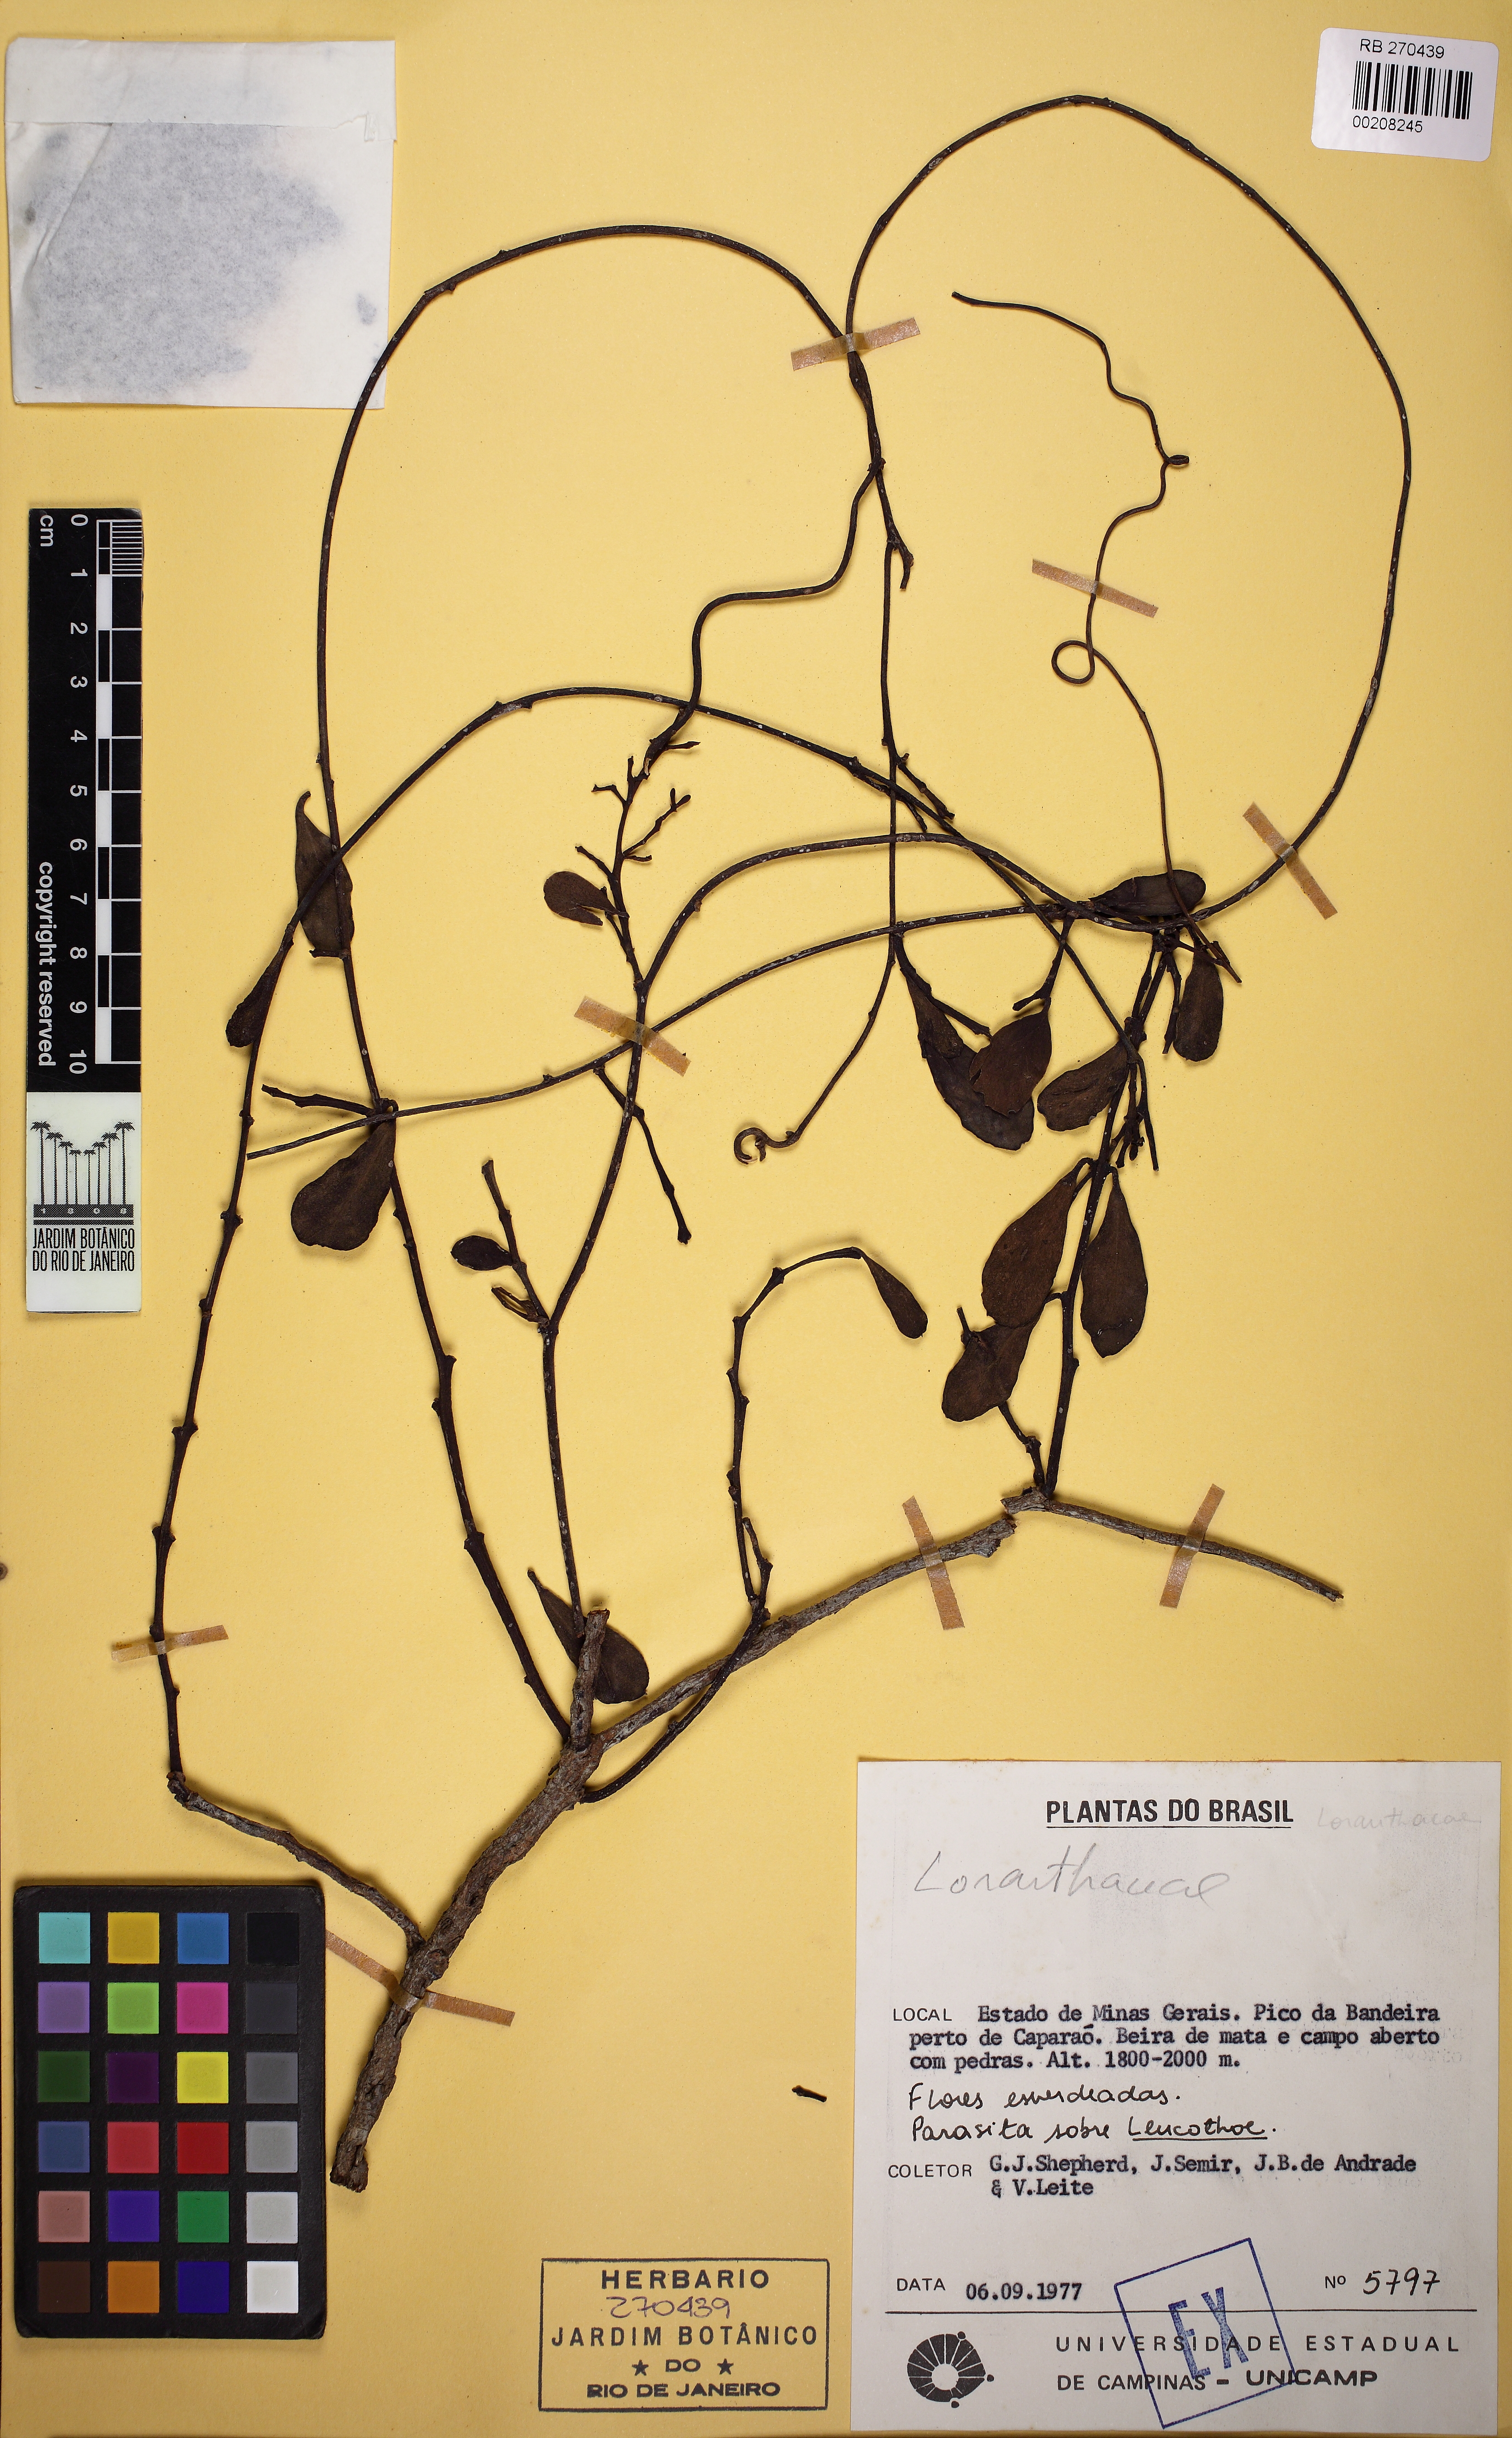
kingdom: Plantae
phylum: Tracheophyta
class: Magnoliopsida
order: Santalales
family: Loranthaceae
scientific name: Loranthaceae
